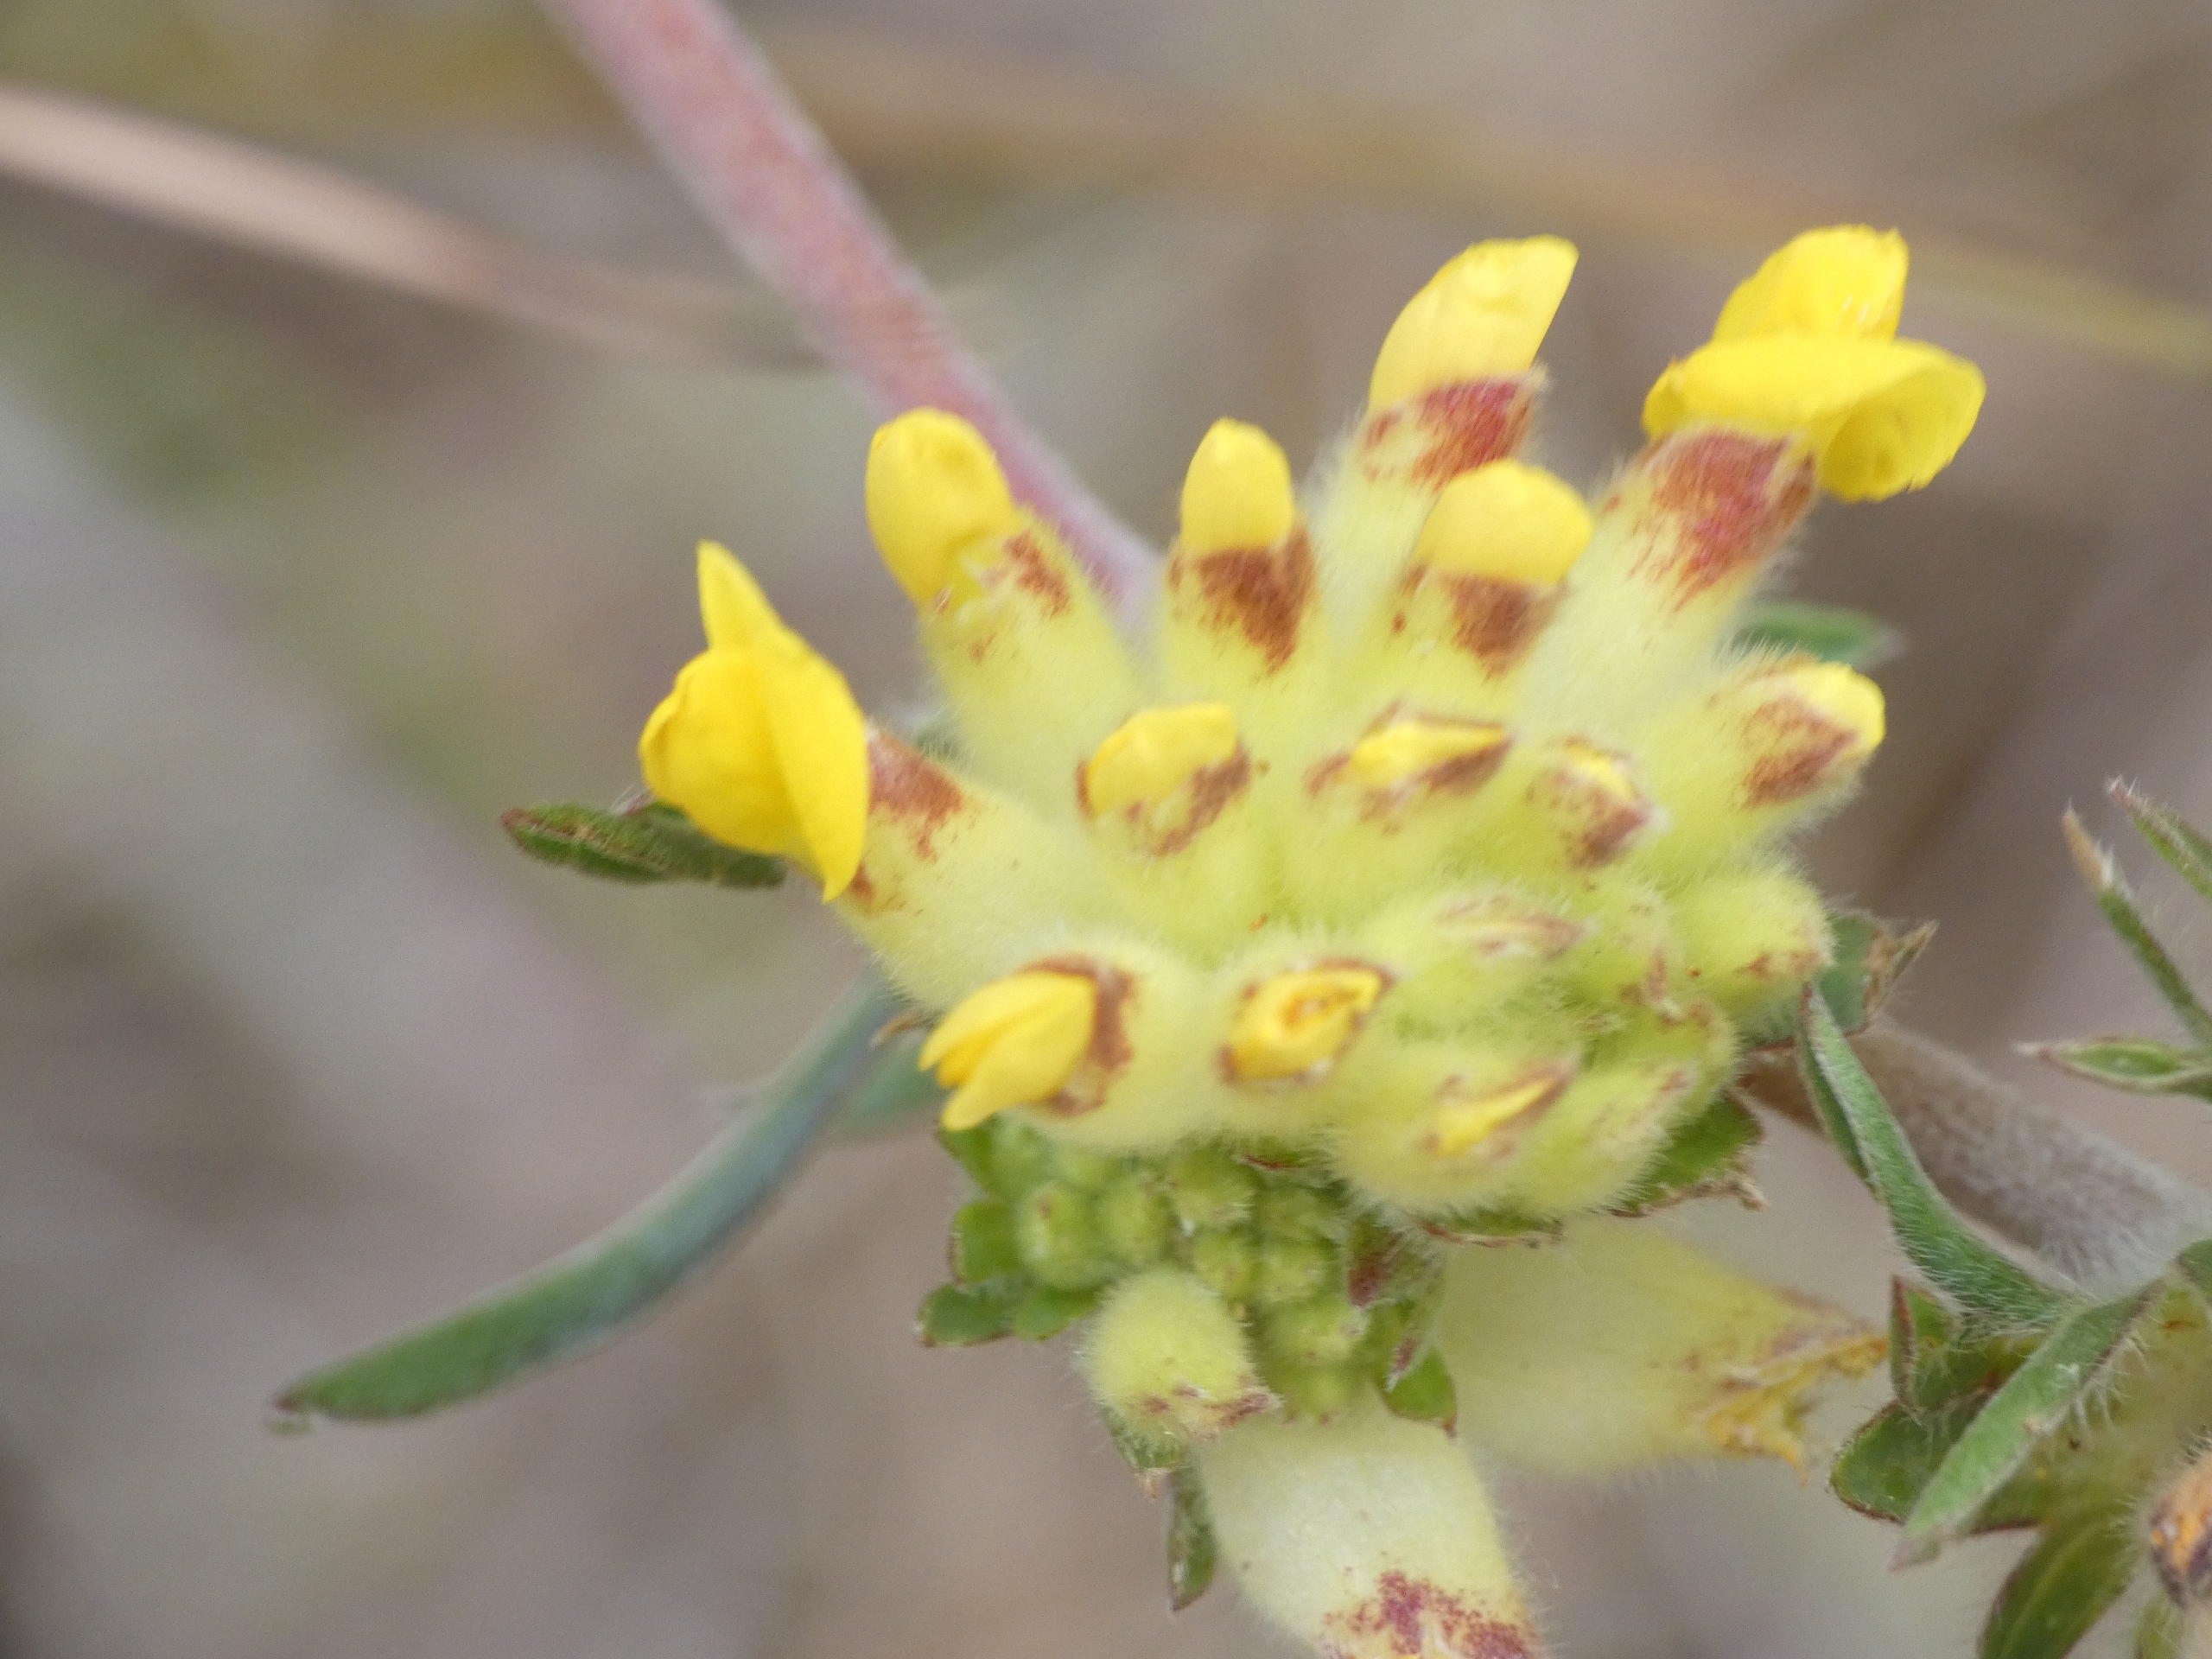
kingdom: Plantae
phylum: Tracheophyta
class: Magnoliopsida
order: Fabales
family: Fabaceae
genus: Anthyllis
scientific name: Anthyllis vulneraria
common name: Rundbælg
